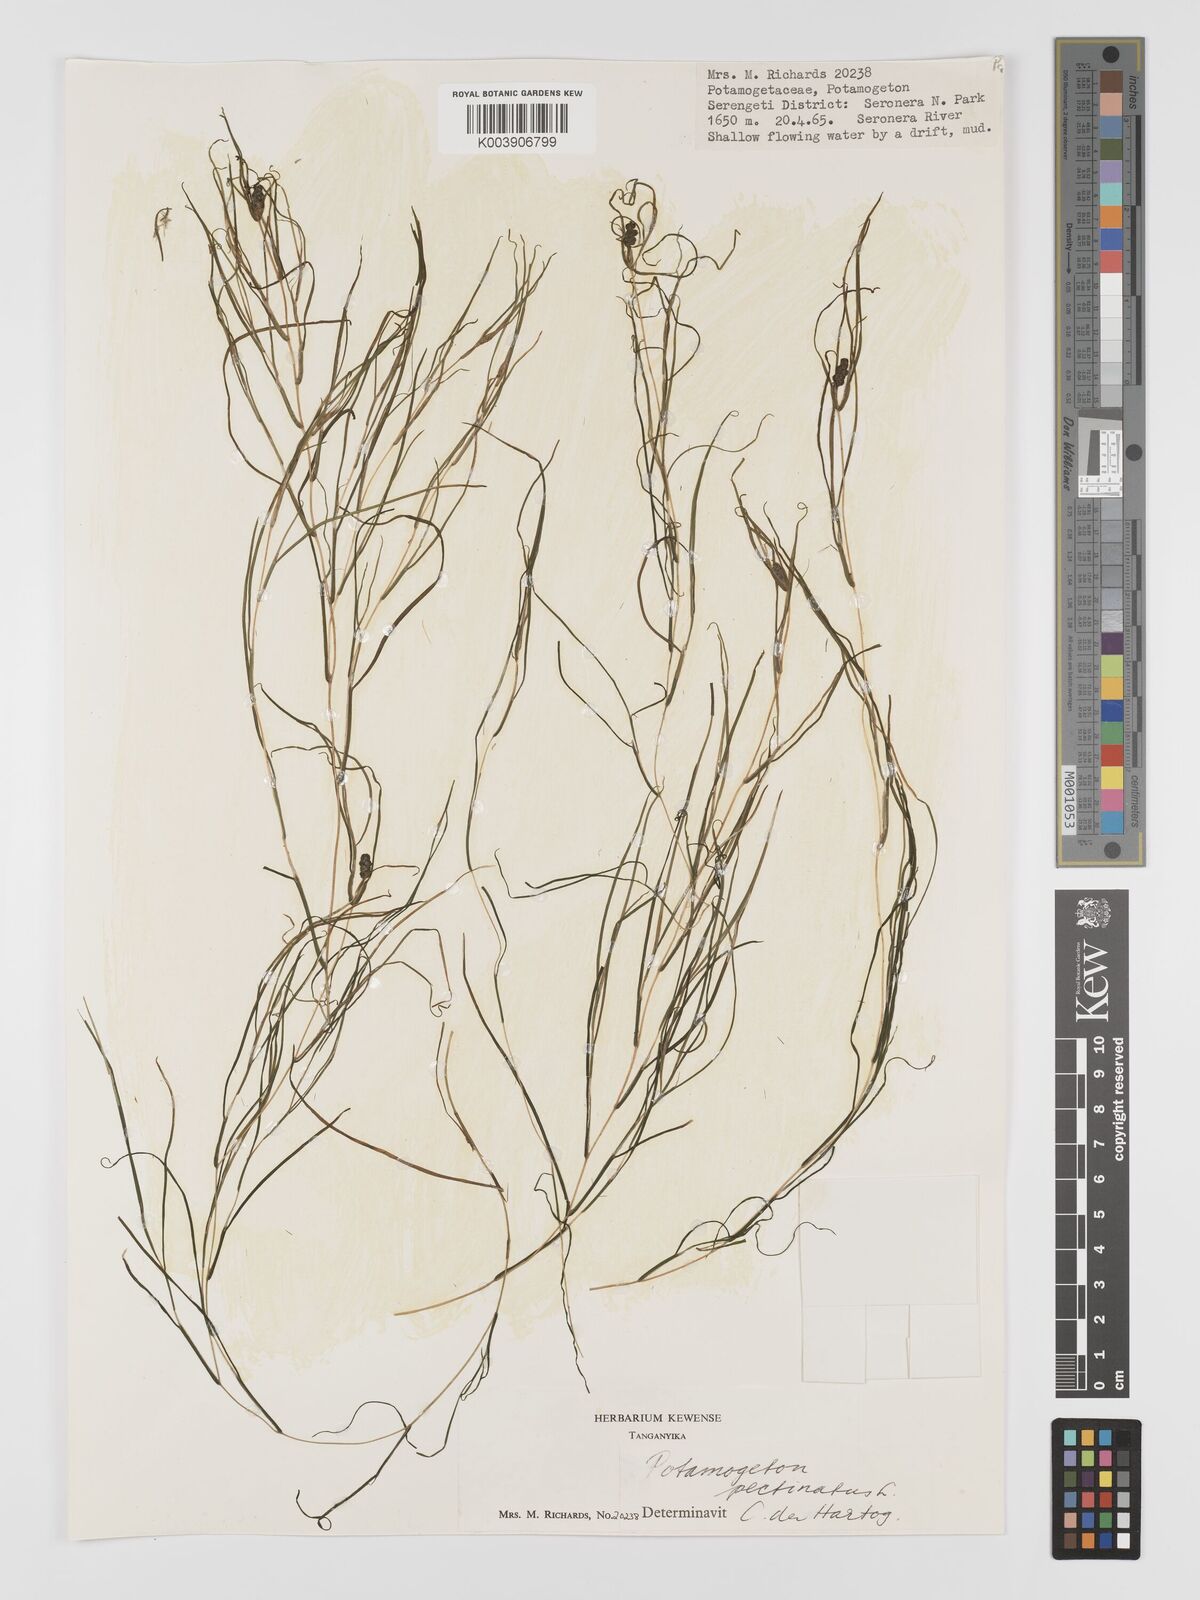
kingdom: Plantae
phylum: Tracheophyta
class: Liliopsida
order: Alismatales
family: Potamogetonaceae
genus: Stuckenia
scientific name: Stuckenia pectinata
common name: Sago pondweed
